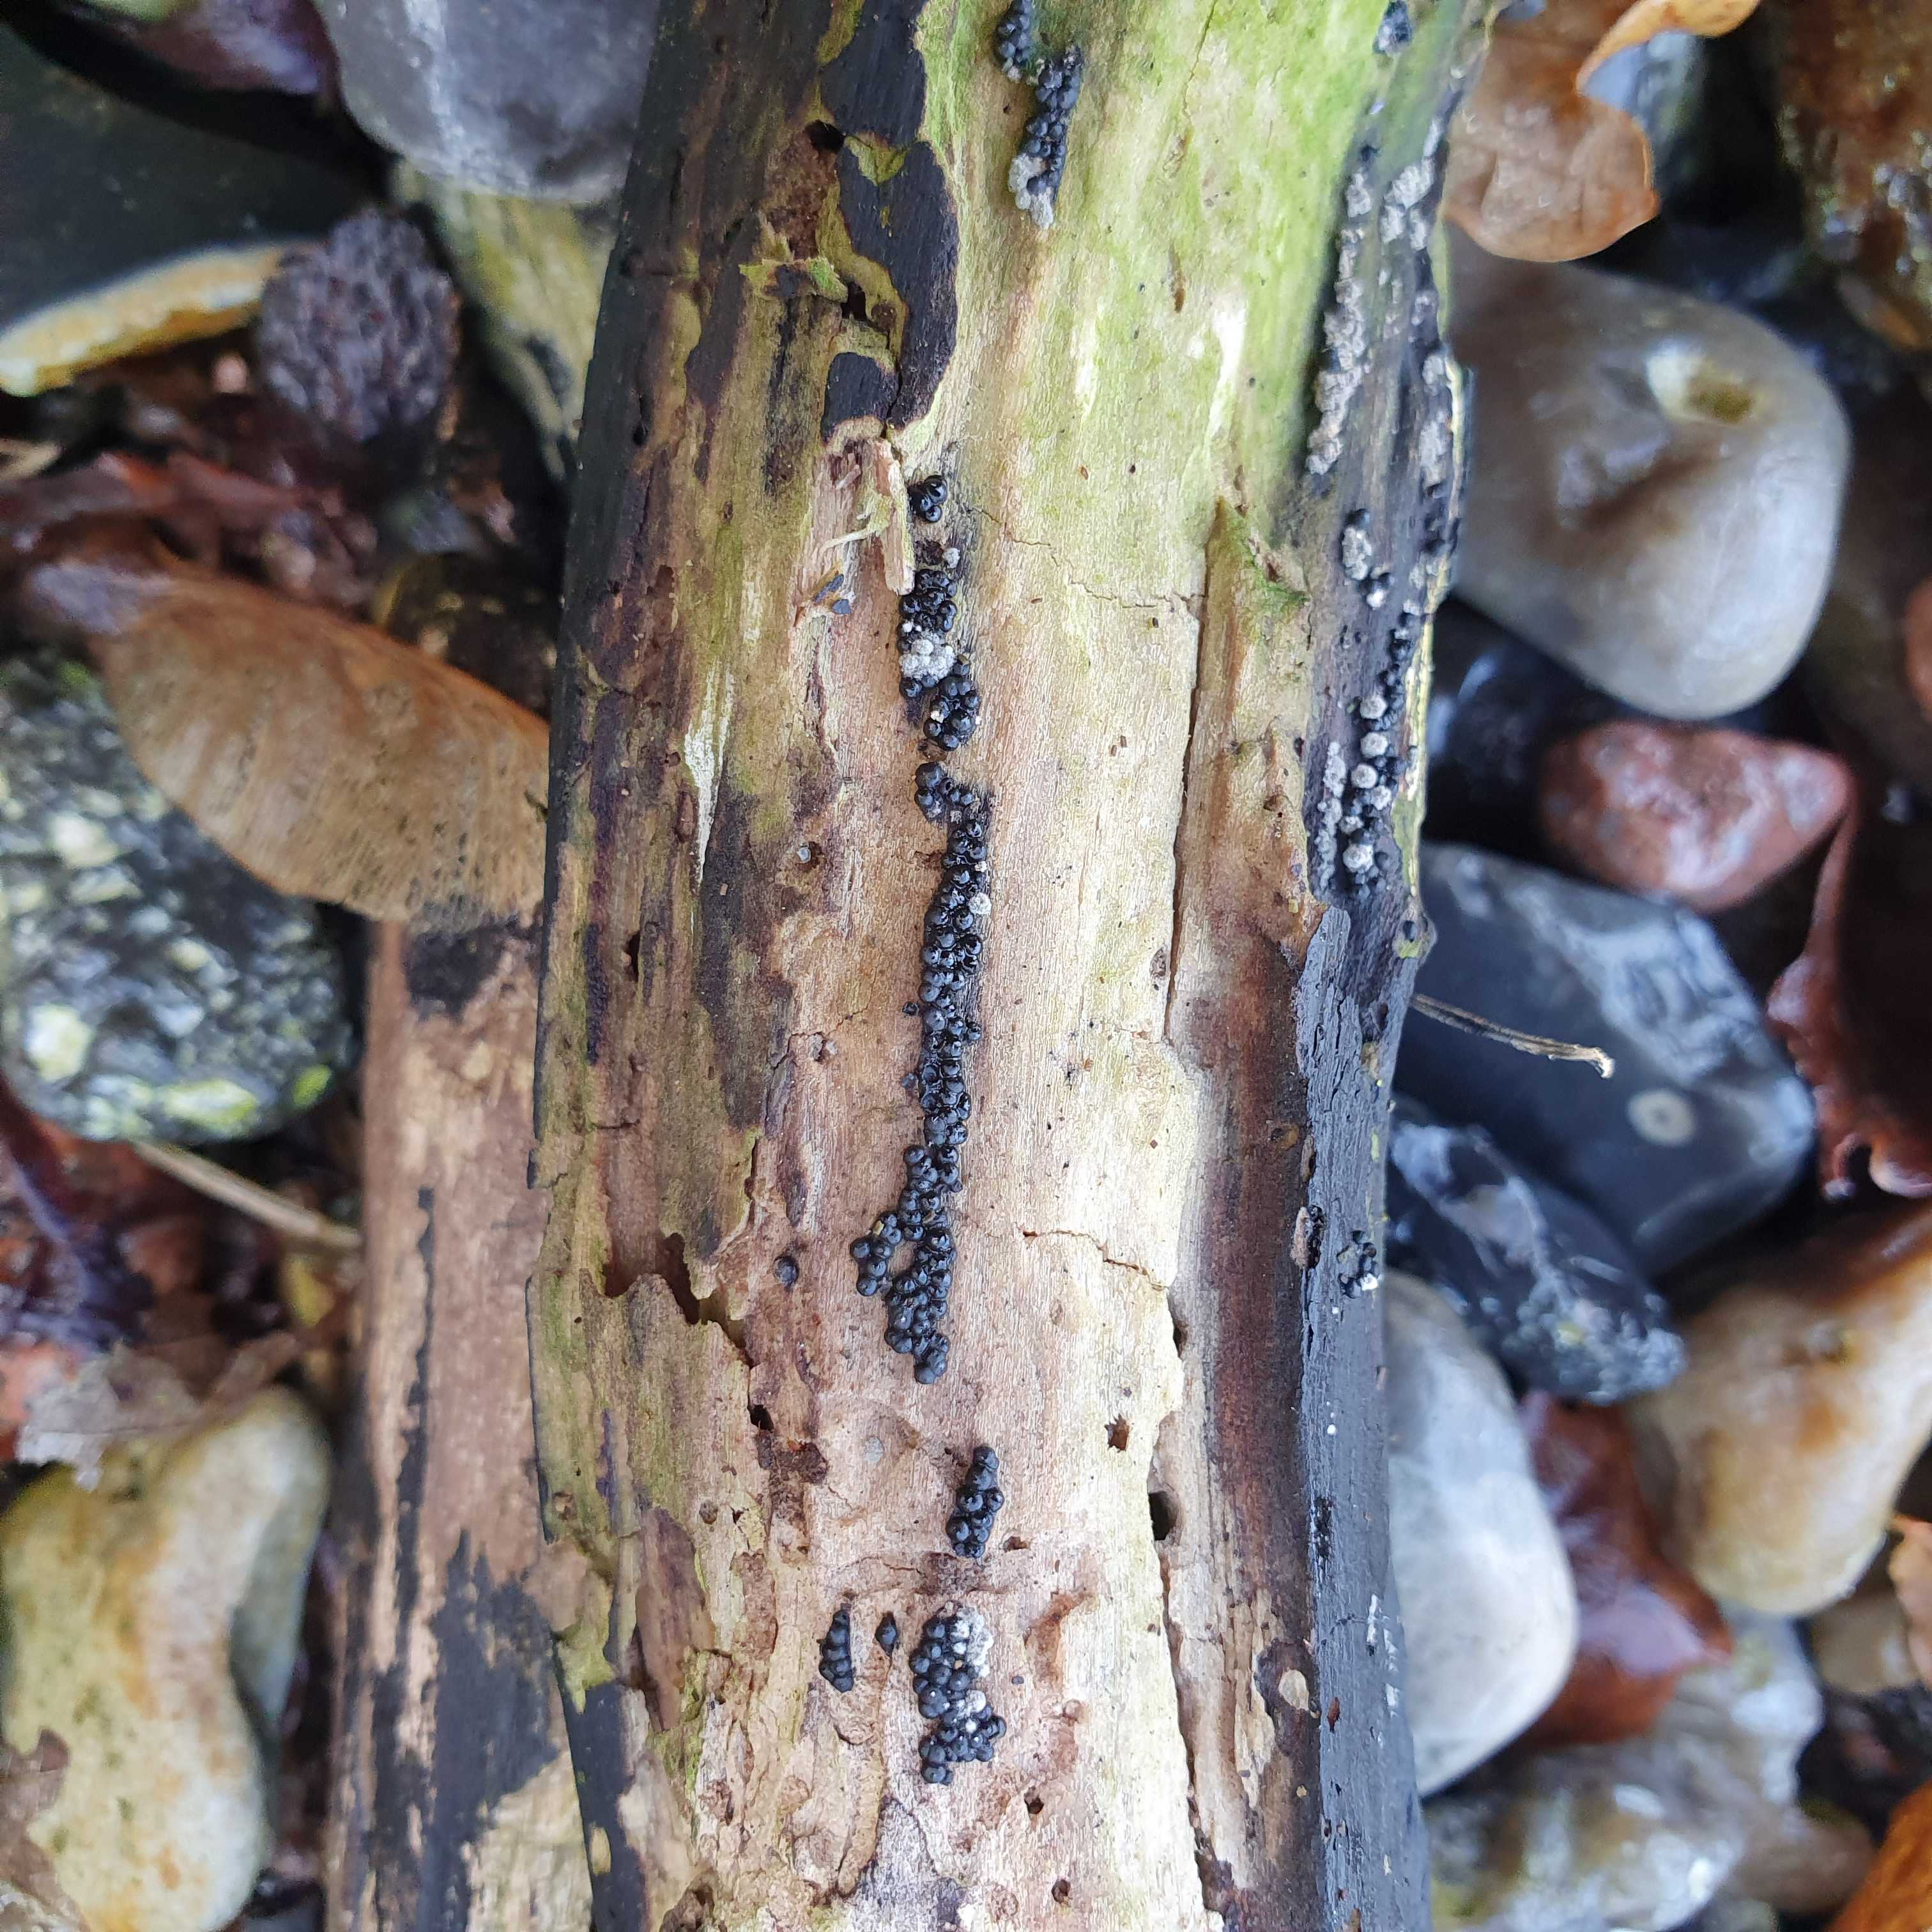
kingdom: Fungi
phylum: Ascomycota
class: Sordariomycetes
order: Xylariales
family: Xylariaceae
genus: Rosellinia
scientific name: Rosellinia marcucciana
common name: måtteløs kulkaviar
